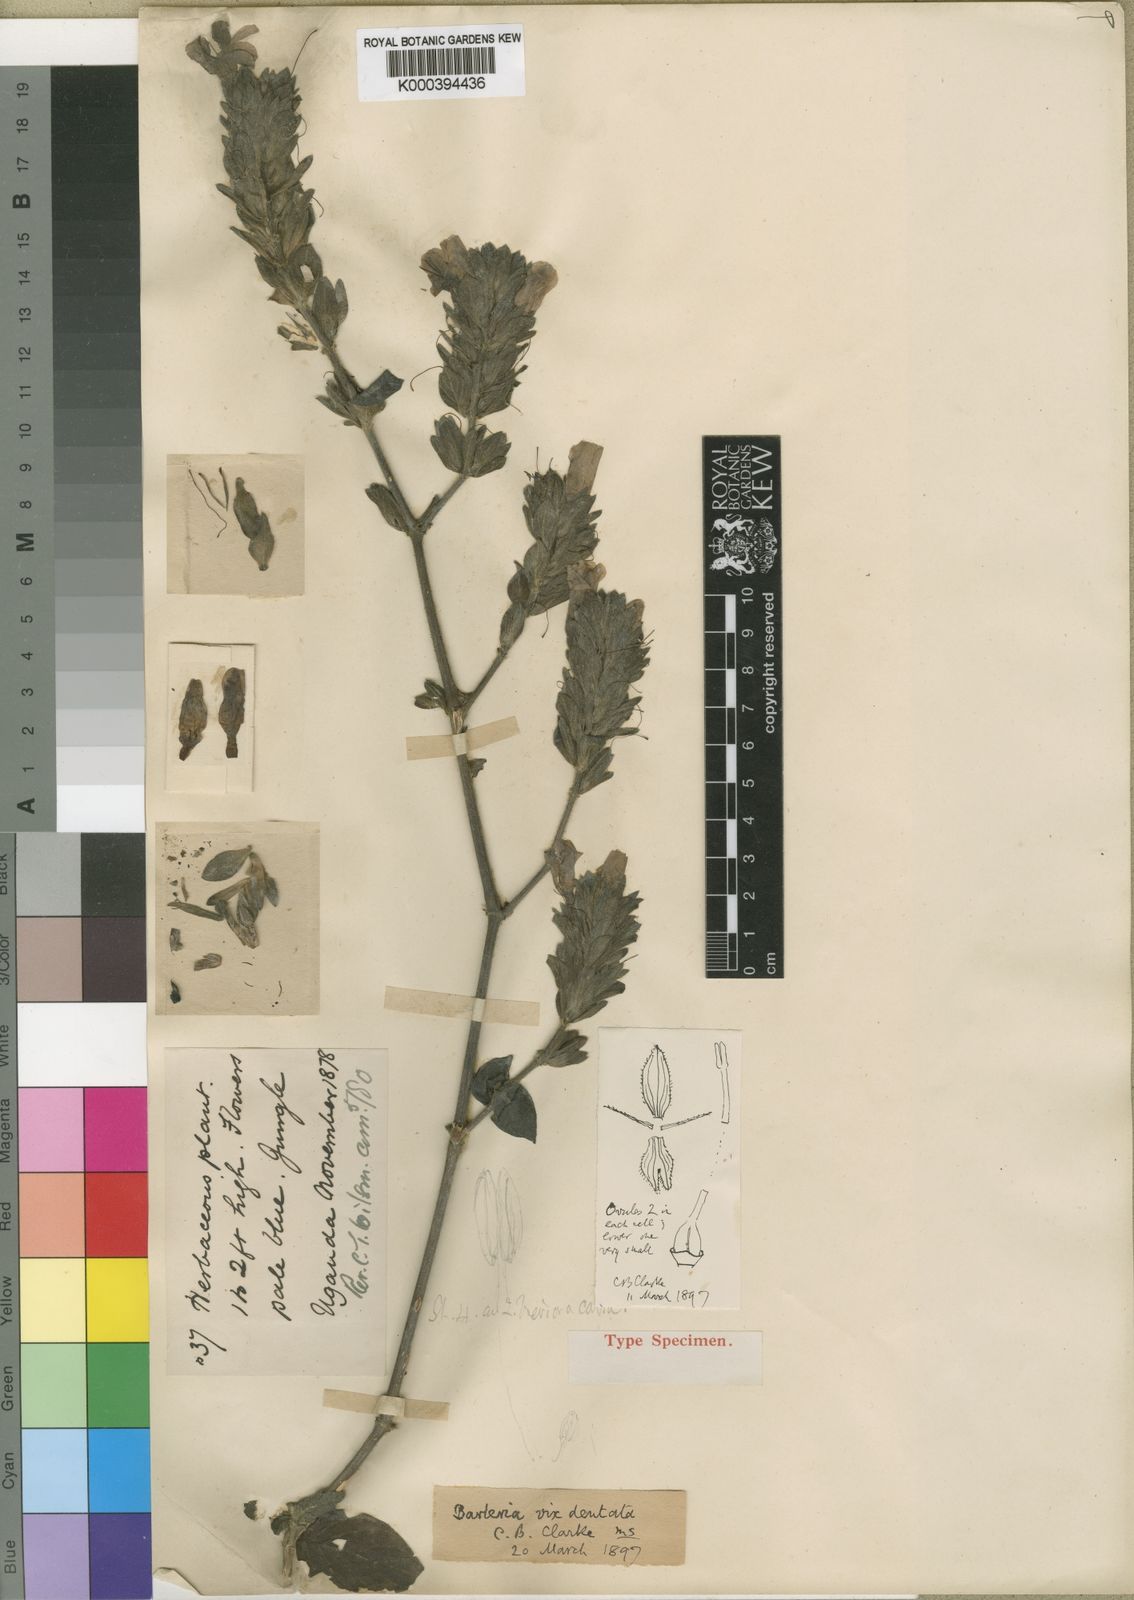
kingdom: Plantae
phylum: Tracheophyta
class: Magnoliopsida
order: Lamiales
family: Acanthaceae
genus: Barleria
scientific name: Barleria ventricosa
